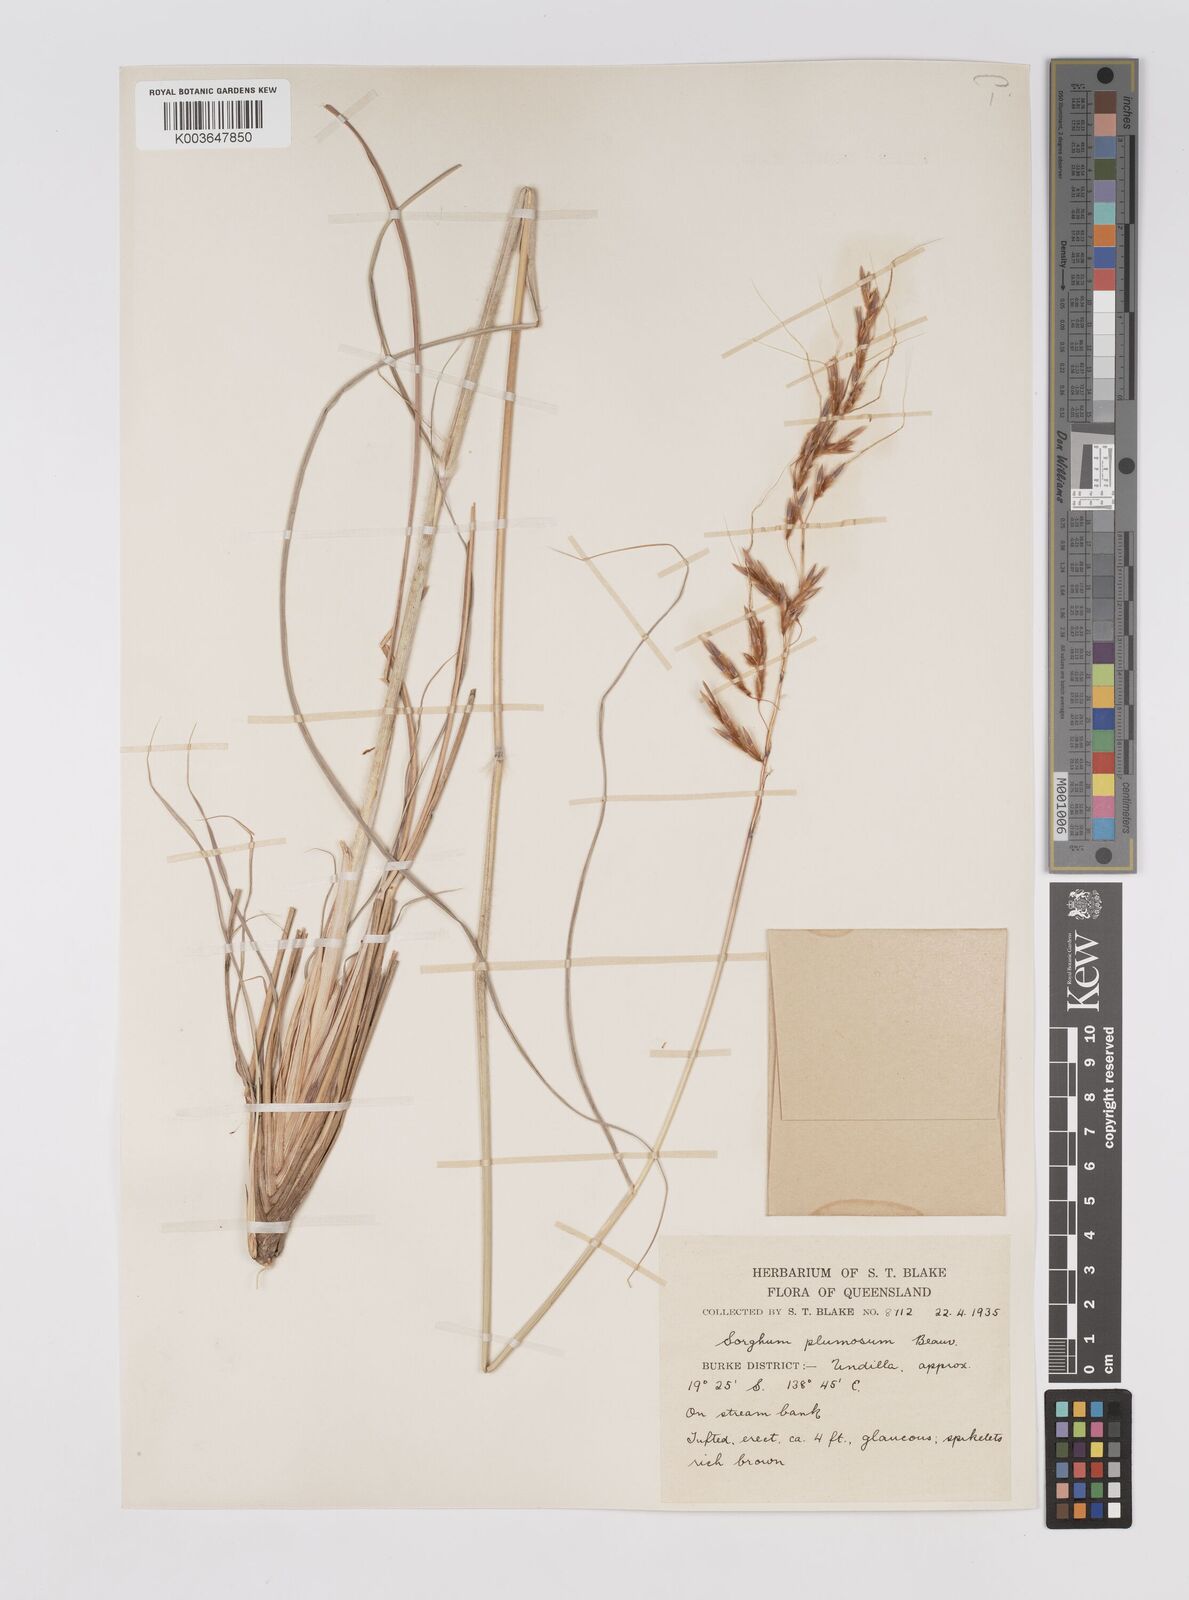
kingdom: Plantae
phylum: Tracheophyta
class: Liliopsida
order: Poales
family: Poaceae
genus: Sarga
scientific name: Sarga plumosa
